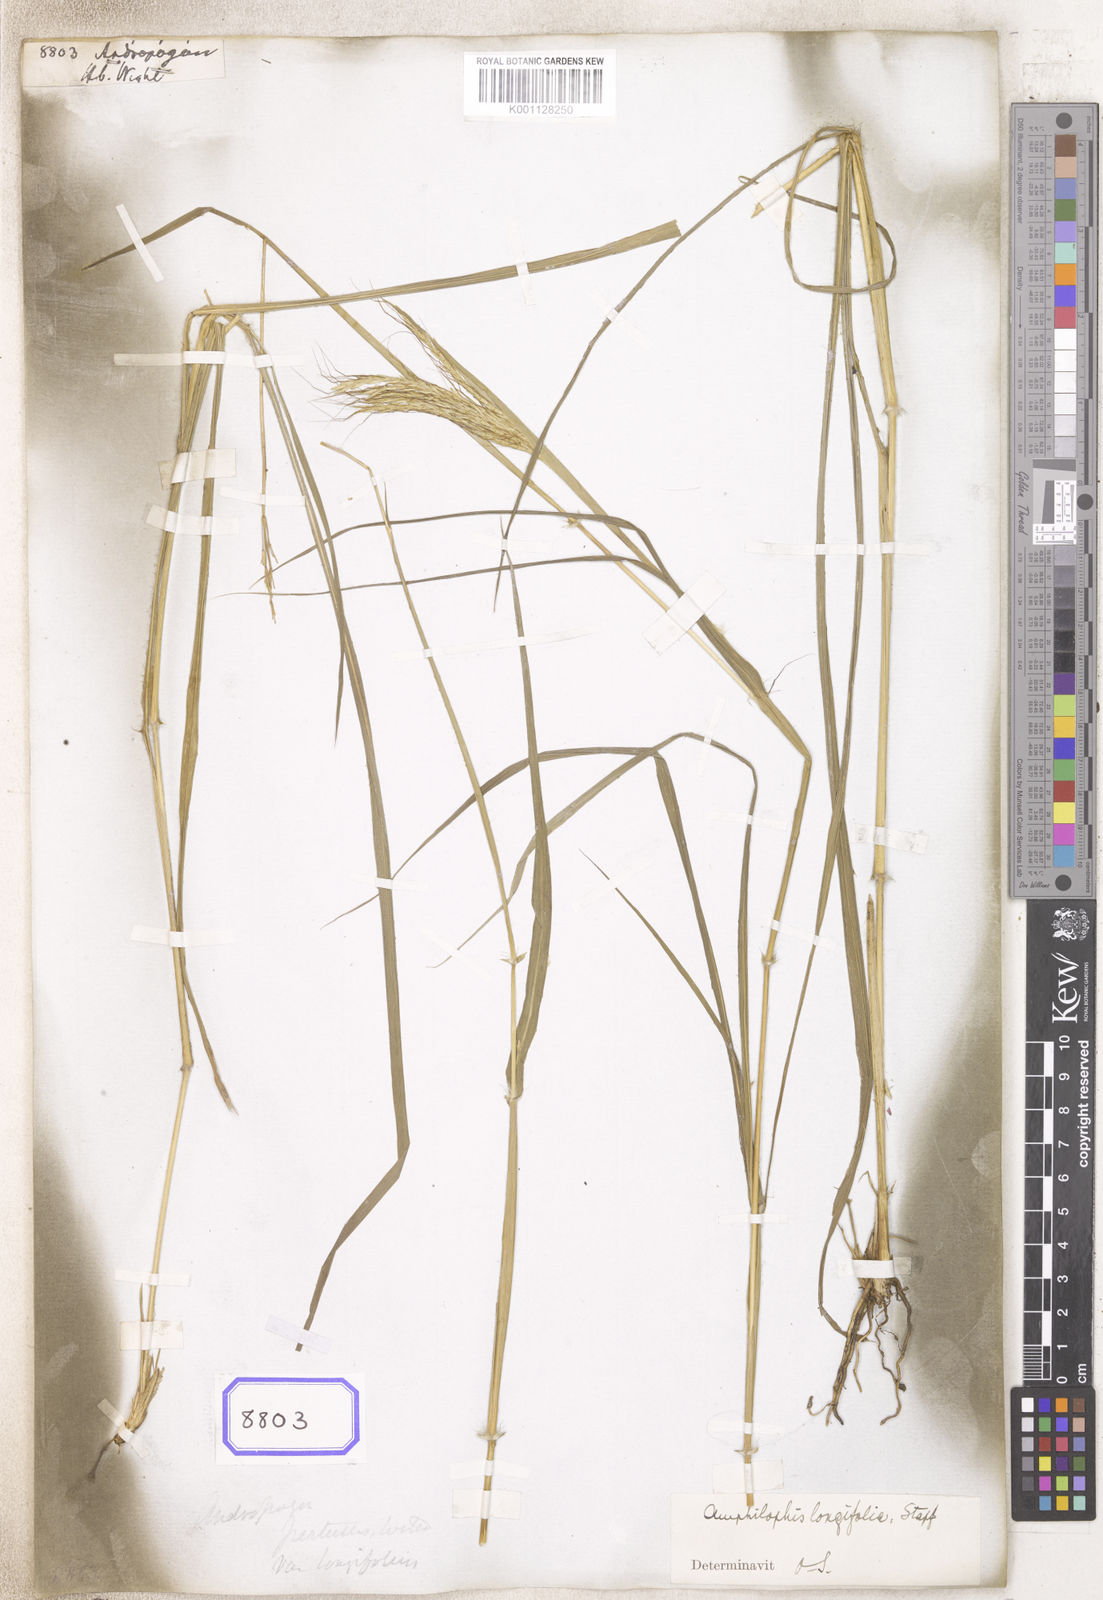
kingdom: Plantae
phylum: Tracheophyta
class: Liliopsida
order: Poales
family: Poaceae
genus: Andropogon
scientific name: Andropogon
